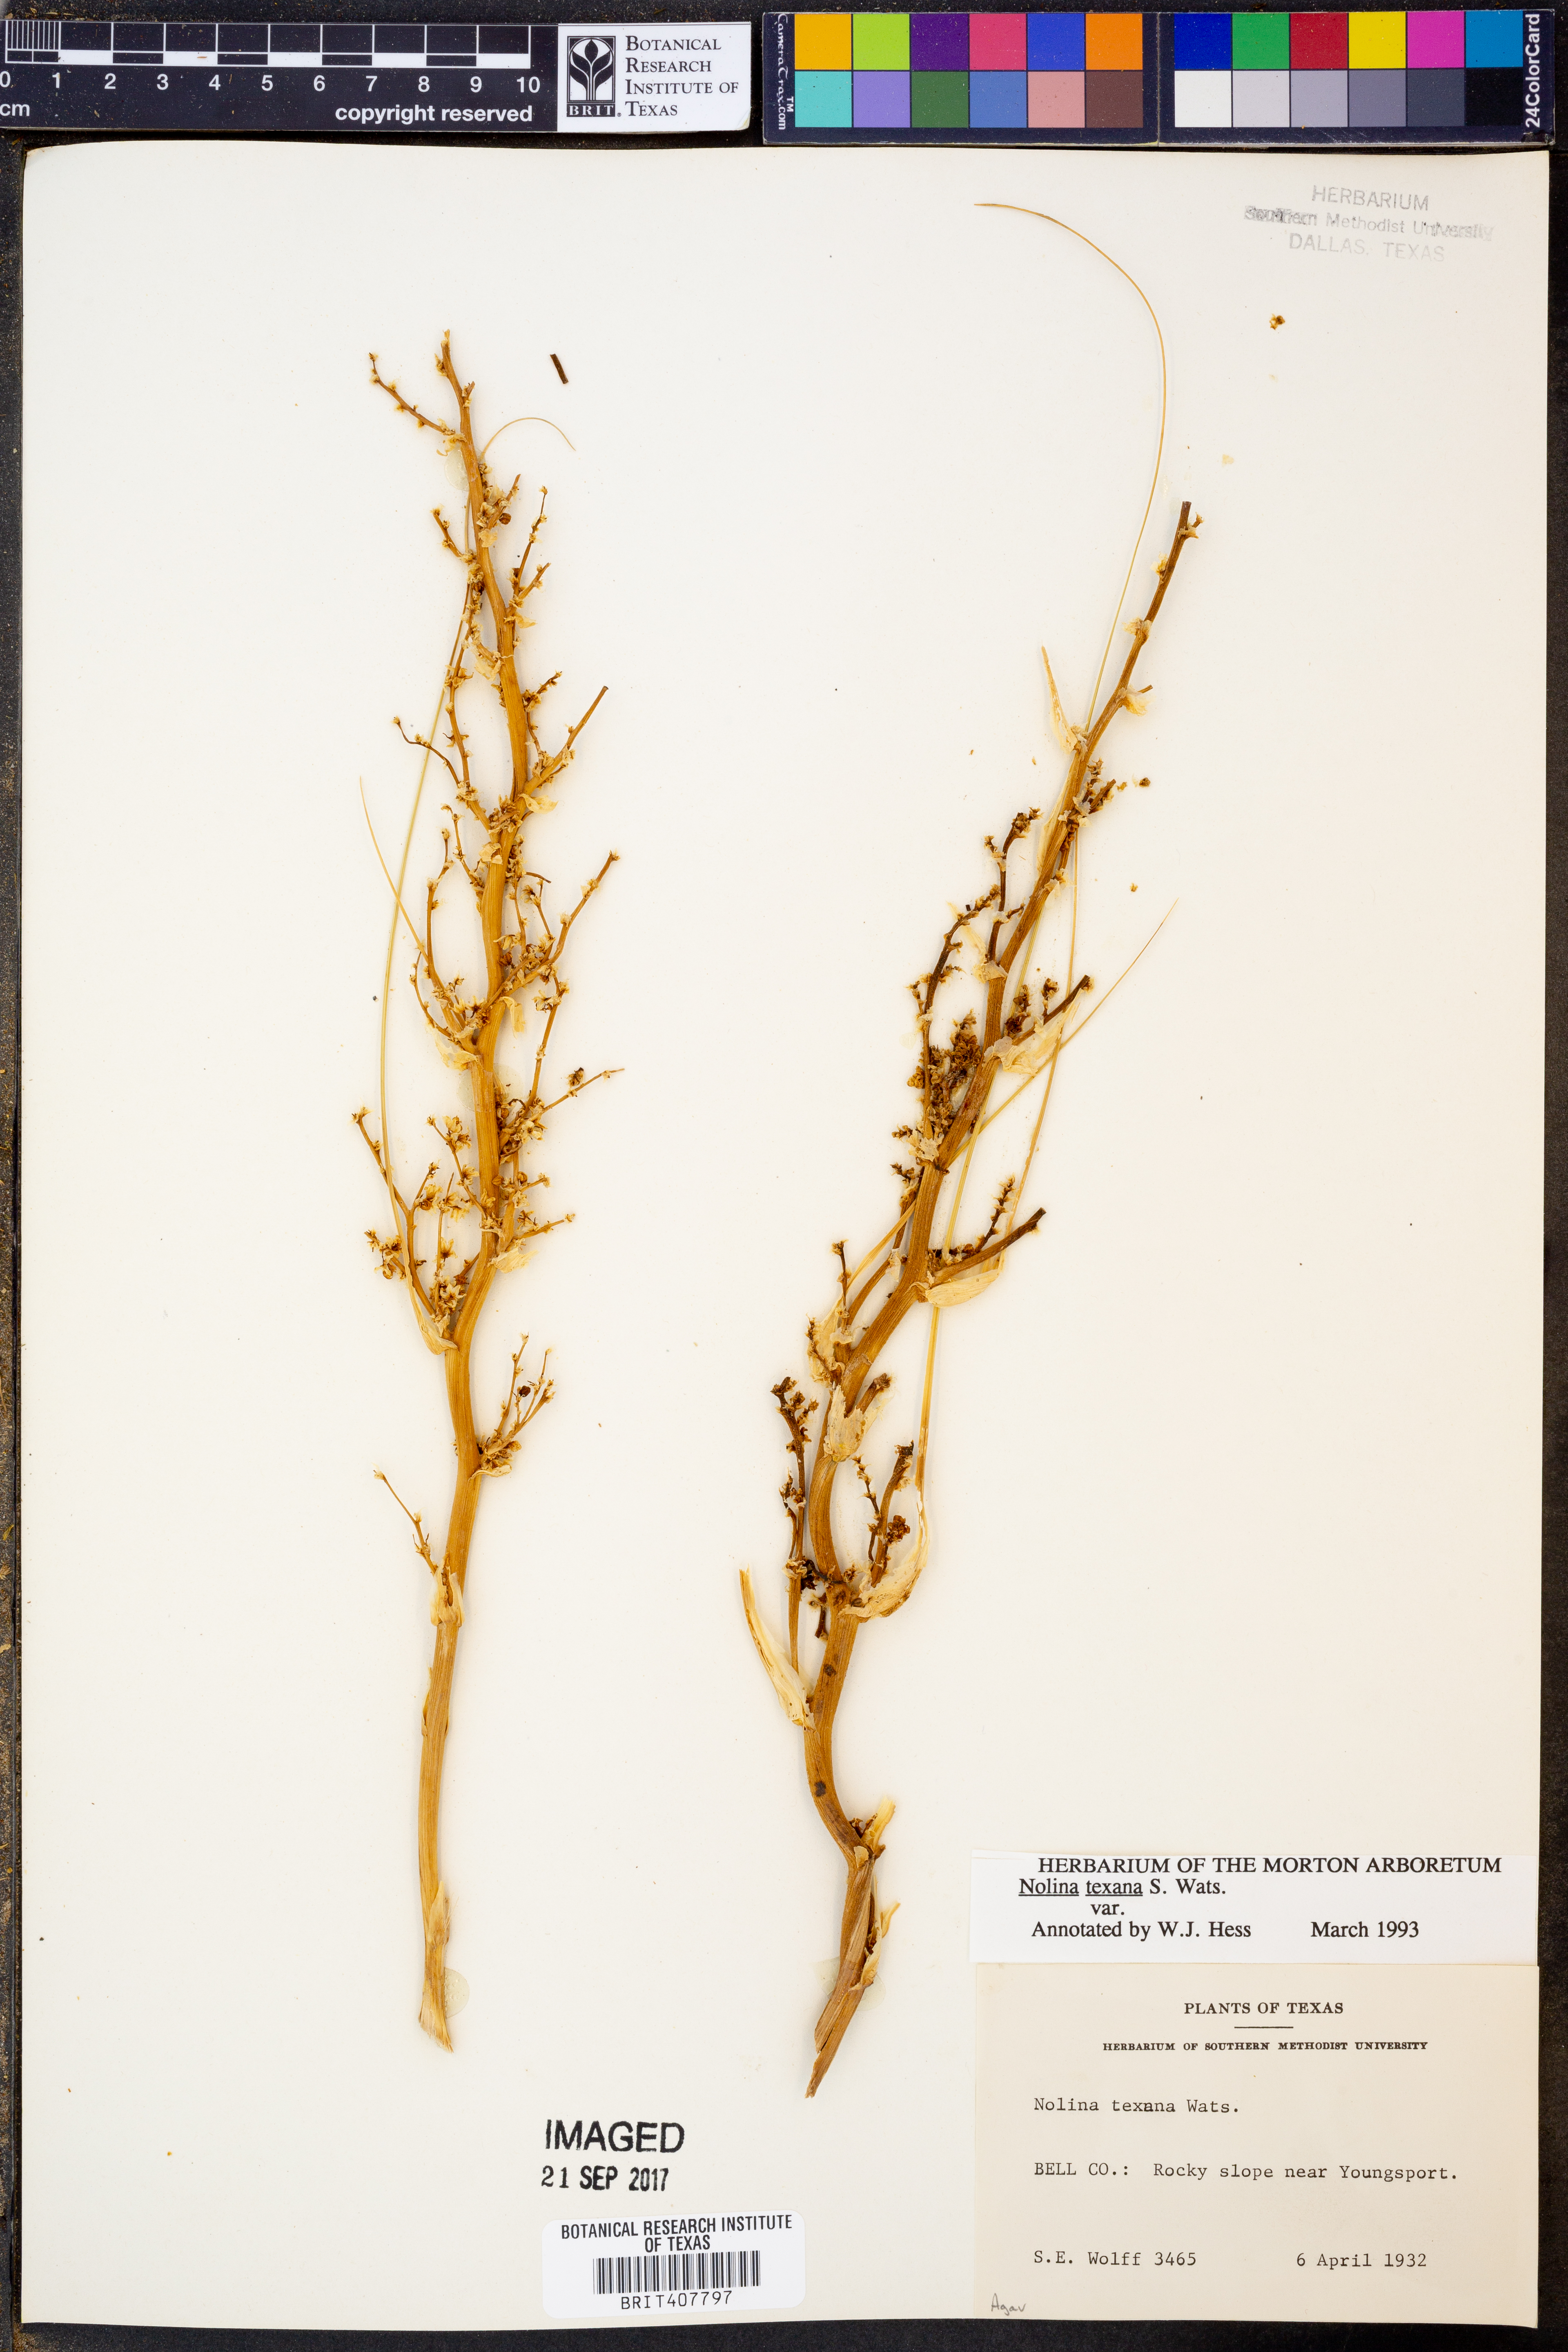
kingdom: Plantae
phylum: Tracheophyta
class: Liliopsida
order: Asparagales
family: Asparagaceae
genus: Nolina
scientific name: Nolina texana
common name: Texas sacahuiste
